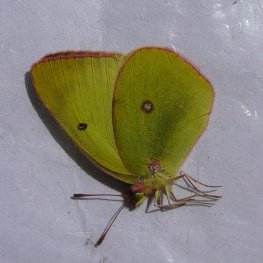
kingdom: Animalia
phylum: Arthropoda
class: Insecta
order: Lepidoptera
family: Pieridae
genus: Colias
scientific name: Colias interior
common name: Pink-edged Sulphur
